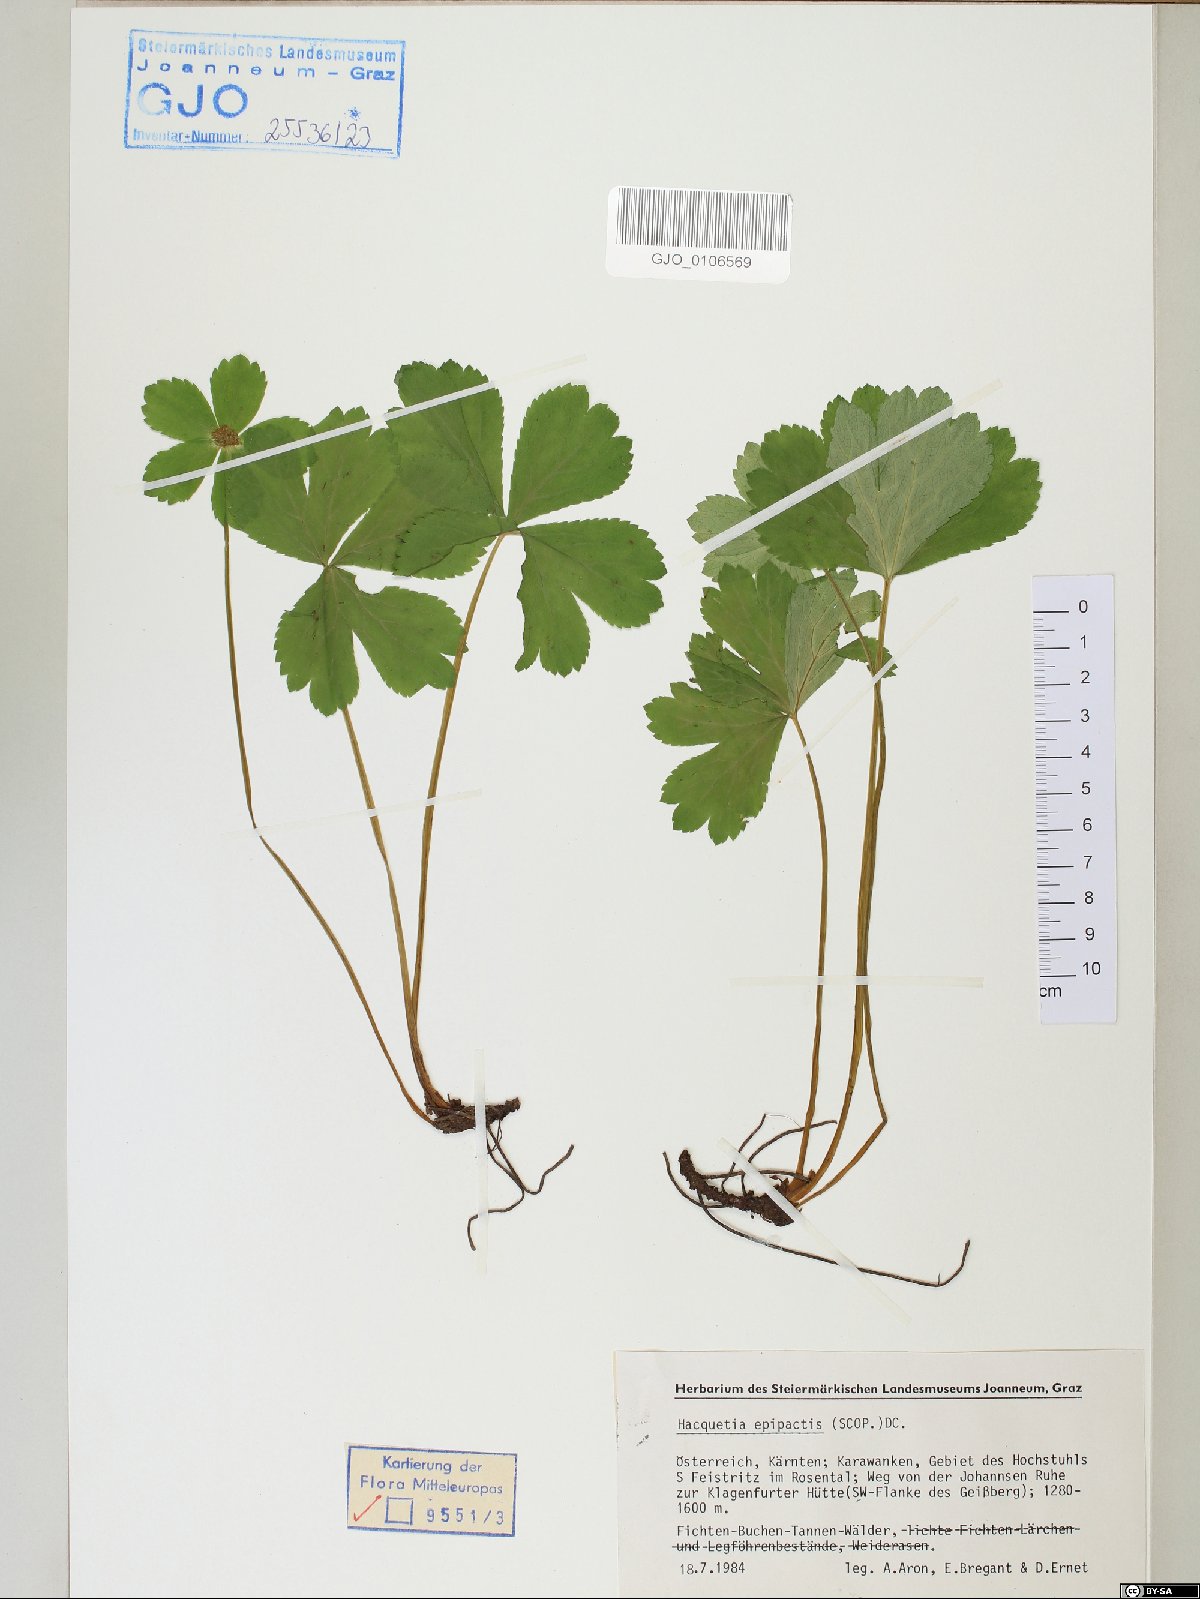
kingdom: Plantae
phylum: Tracheophyta
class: Magnoliopsida
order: Apiales
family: Apiaceae
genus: Sanicula
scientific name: Sanicula epipactis
